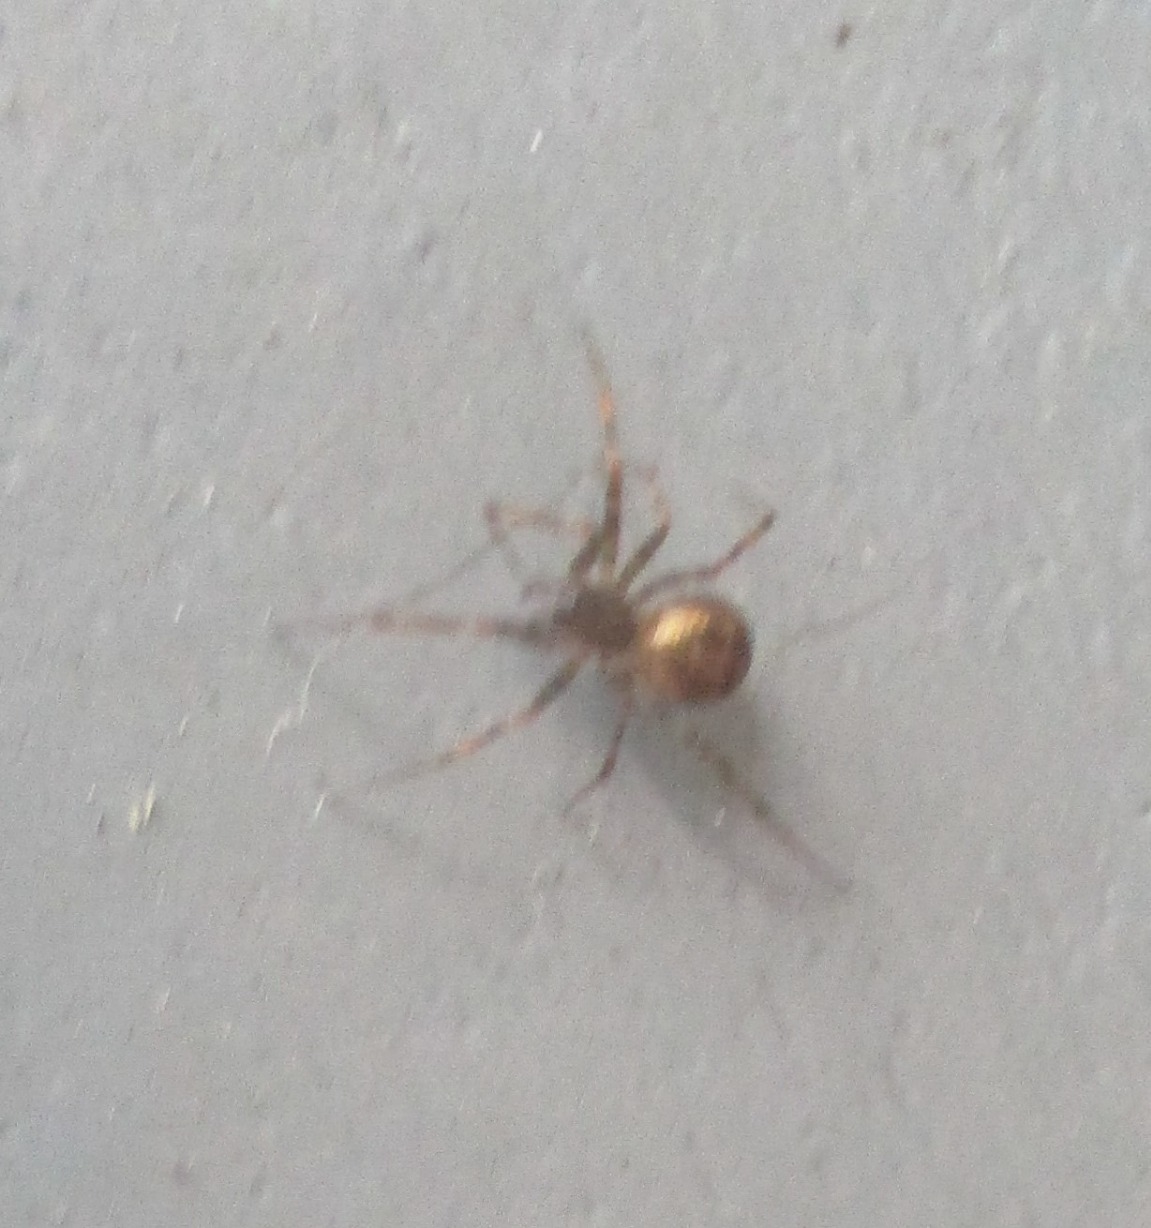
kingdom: Animalia
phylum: Arthropoda
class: Arachnida
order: Araneae
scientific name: Araneae
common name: Edderkopper
